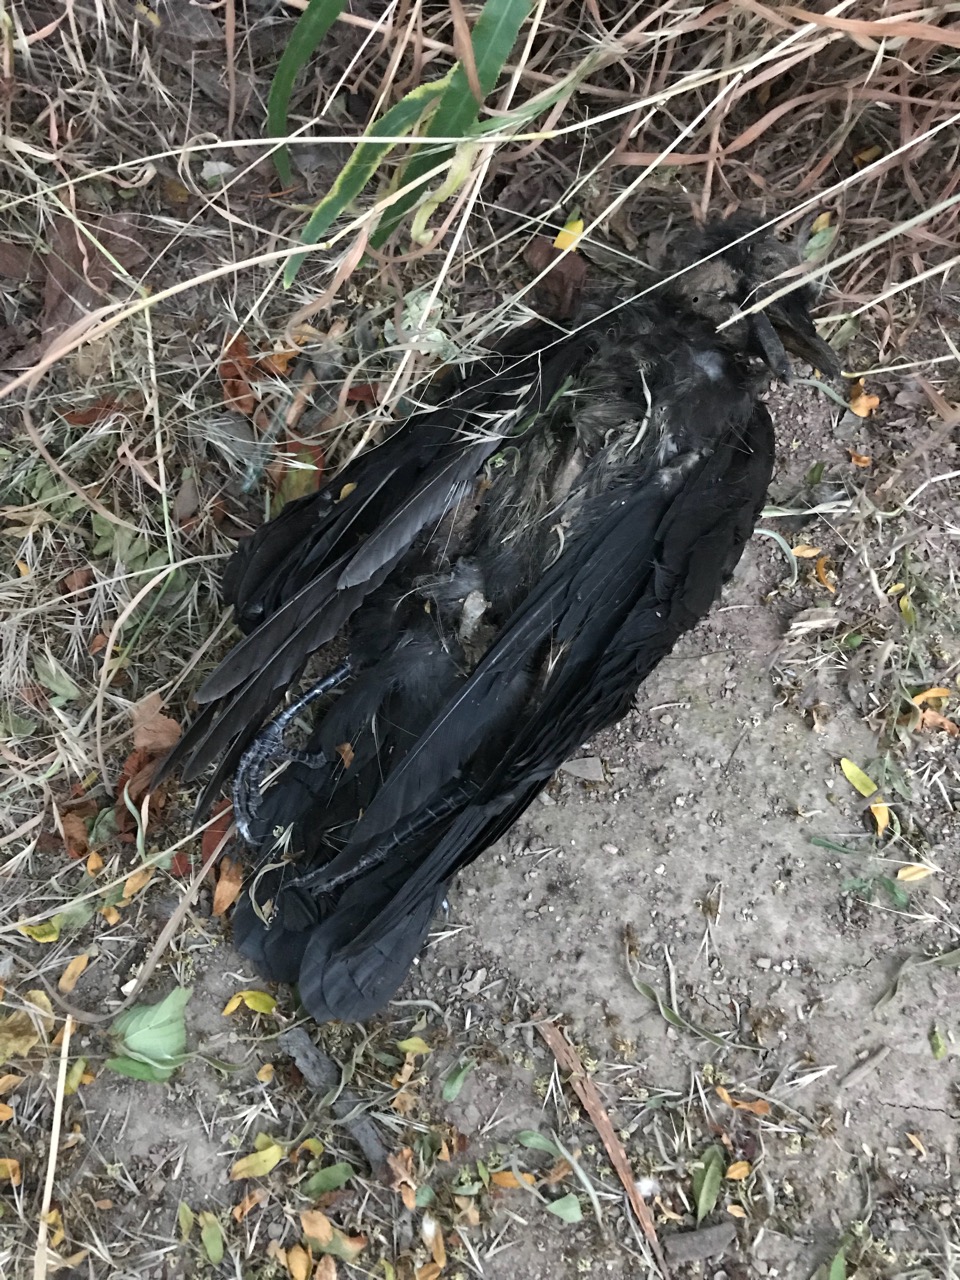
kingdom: Animalia
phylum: Chordata
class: Aves
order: Passeriformes
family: Corvidae
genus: Corvus
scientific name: Corvus corone
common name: Carrion crow
